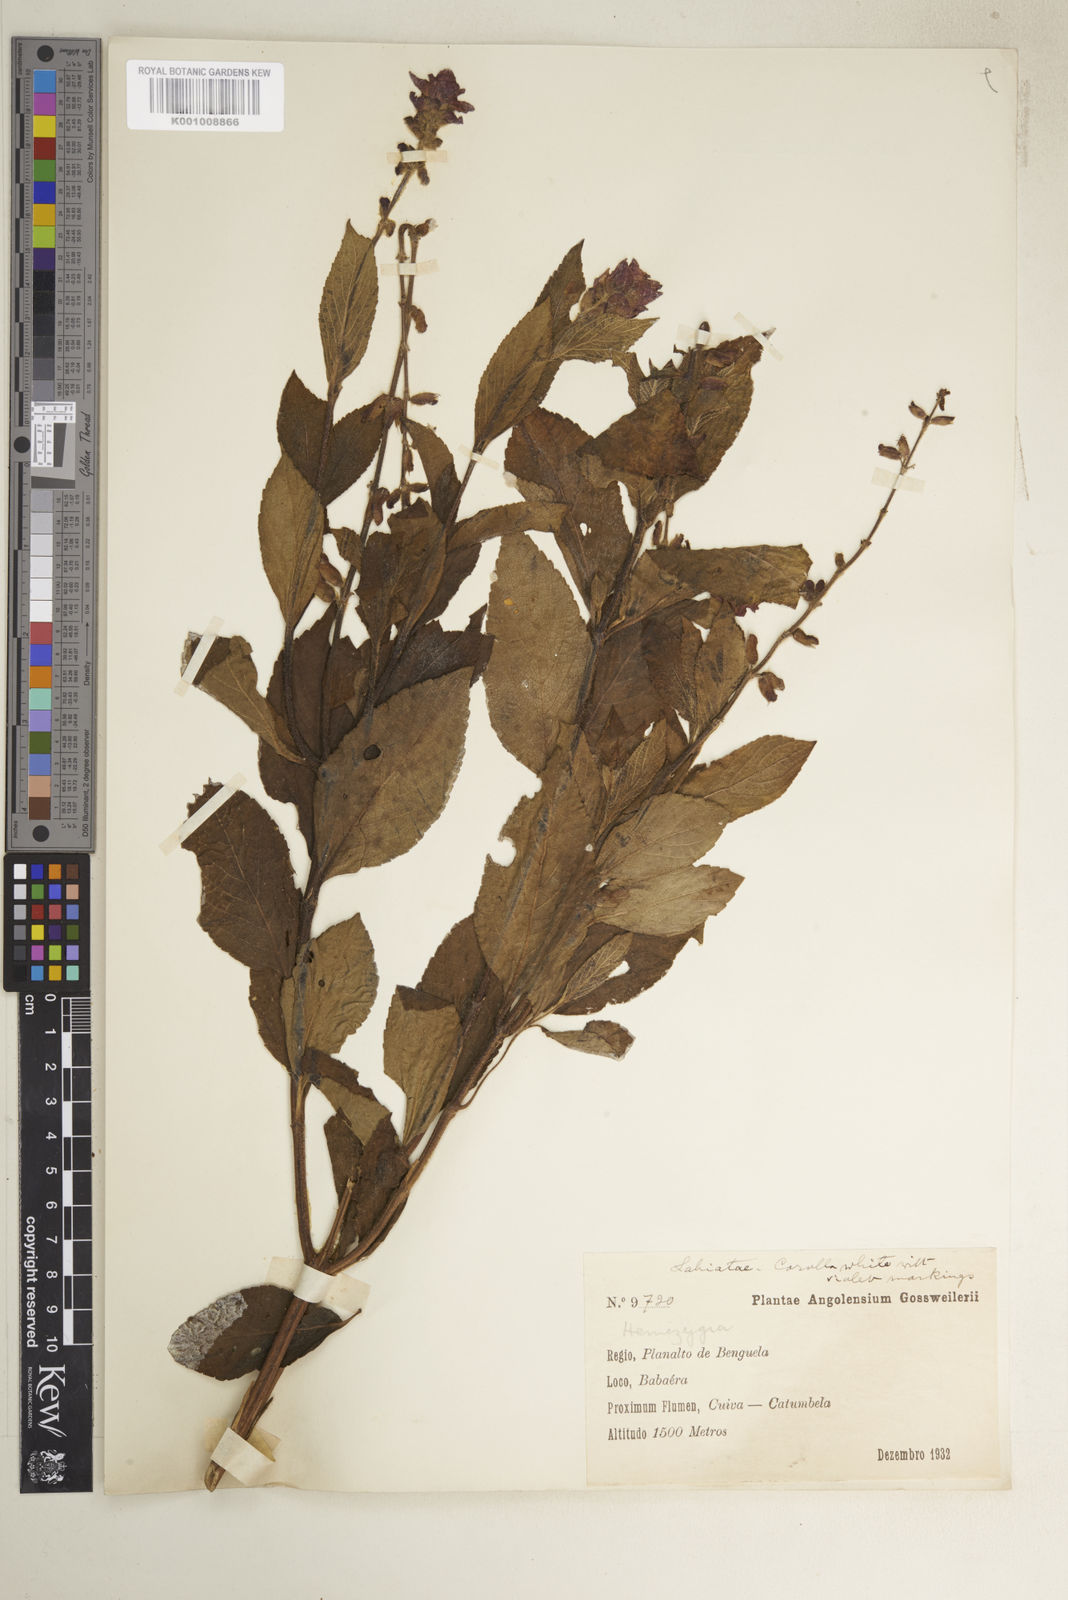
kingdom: Plantae
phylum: Tracheophyta
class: Magnoliopsida
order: Lamiales
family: Lamiaceae
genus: Syncolostemon
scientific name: Syncolostemon welwitschii
